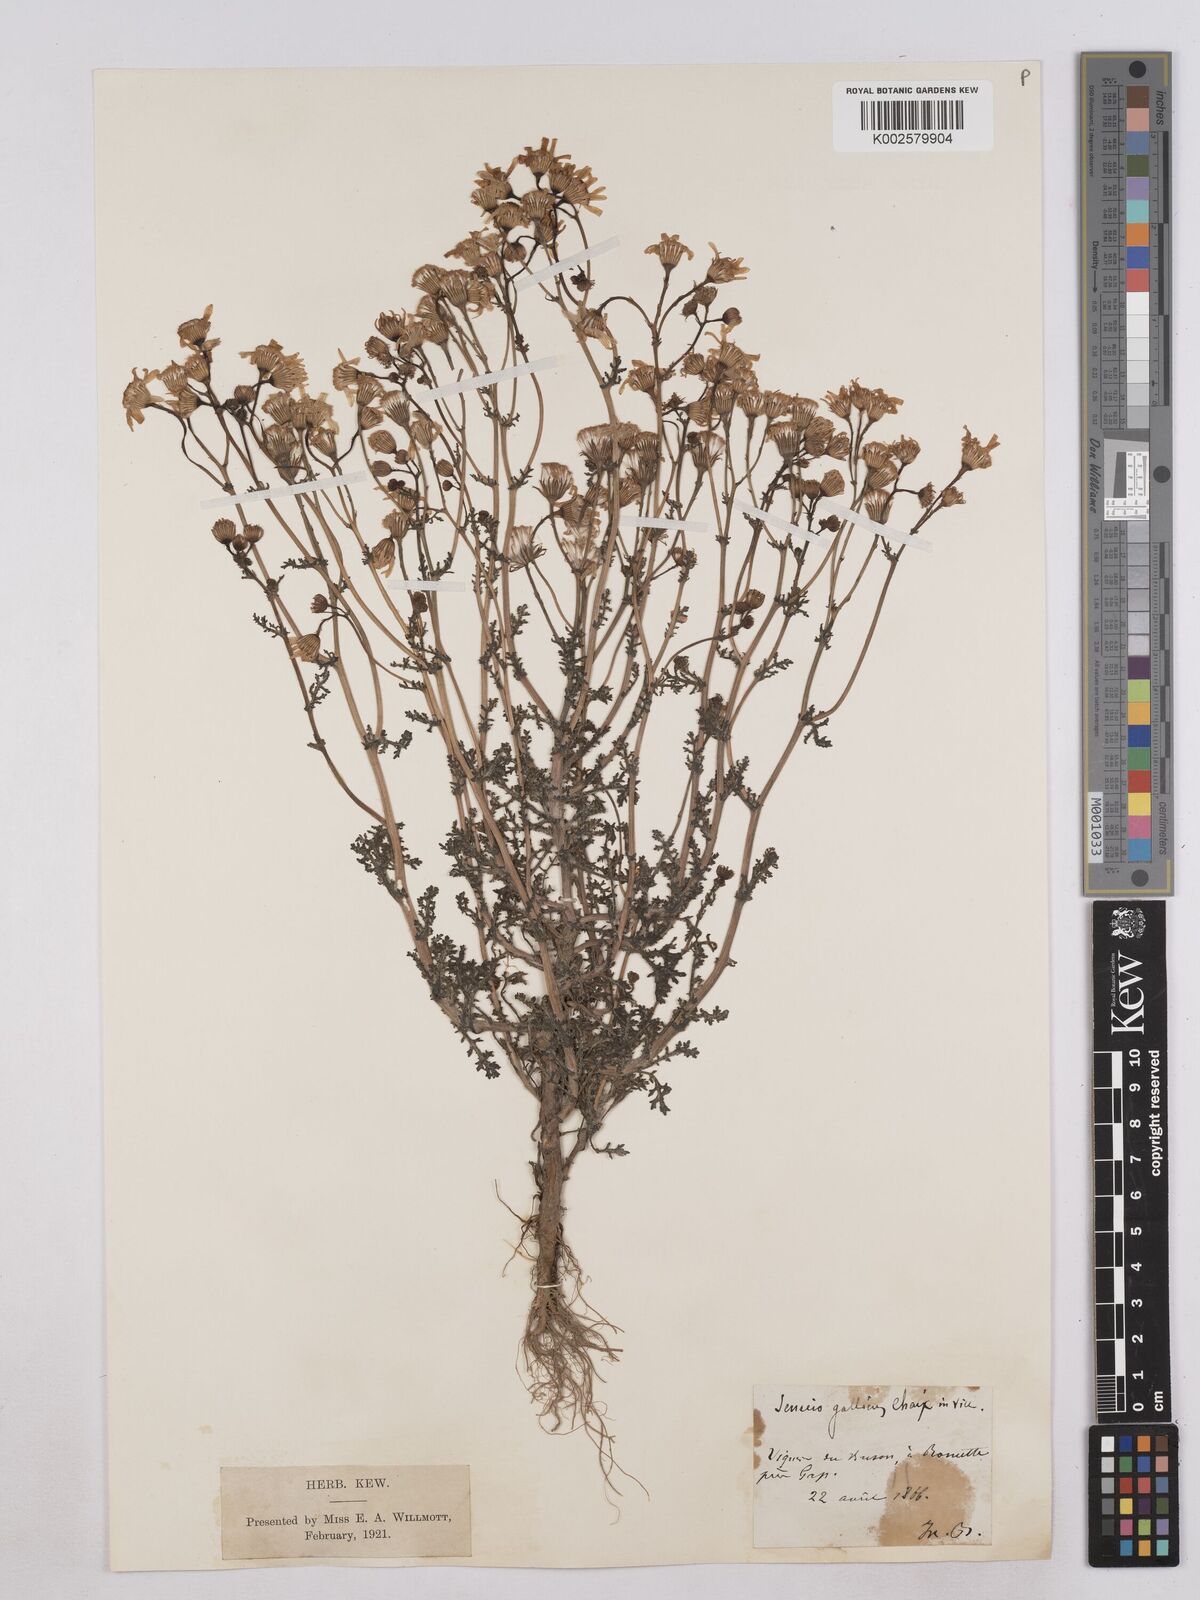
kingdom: Plantae
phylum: Tracheophyta
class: Magnoliopsida
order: Asterales
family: Asteraceae
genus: Senecio
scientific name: Senecio gallicus
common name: French groundsel
